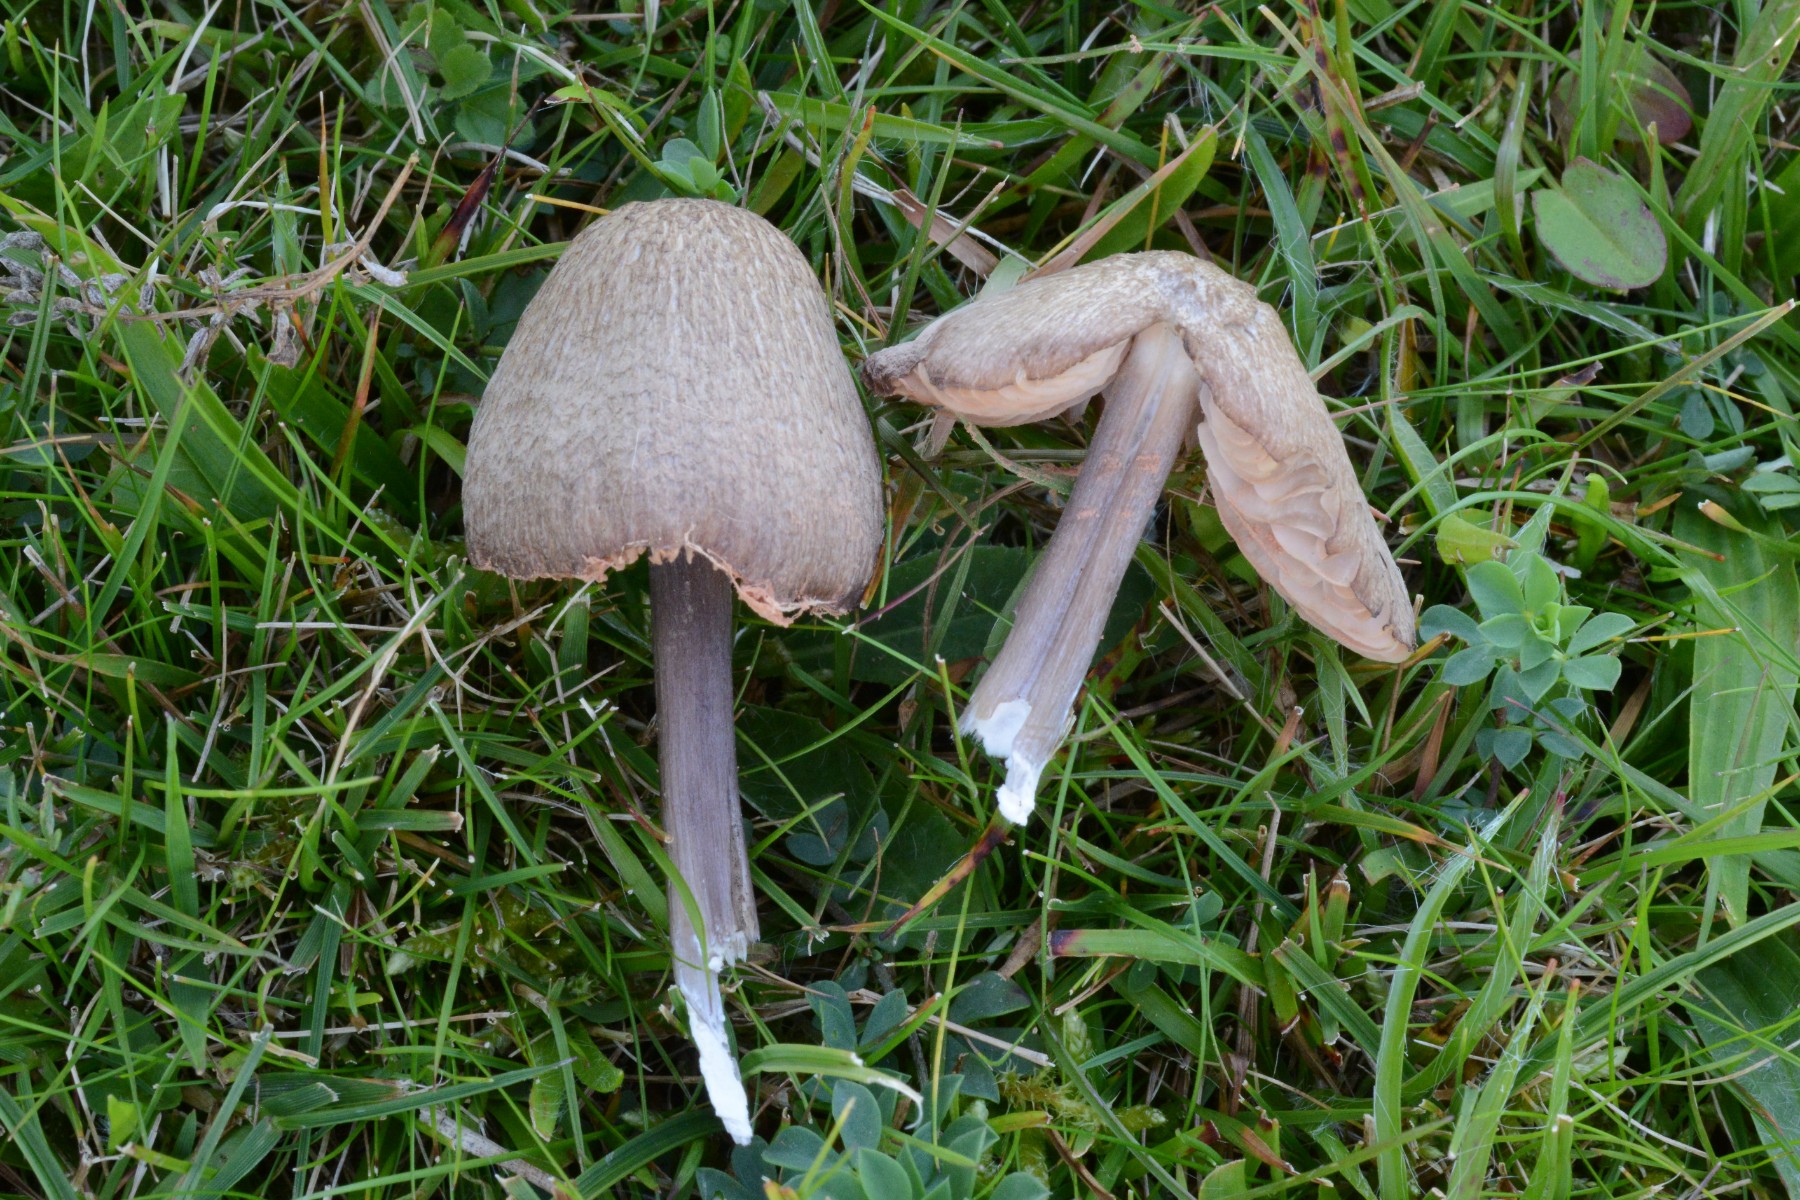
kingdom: Fungi
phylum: Basidiomycota
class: Agaricomycetes
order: Agaricales
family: Entolomataceae
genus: Entoloma
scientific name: Entoloma griseocyaneum
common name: gråblå rødblad
